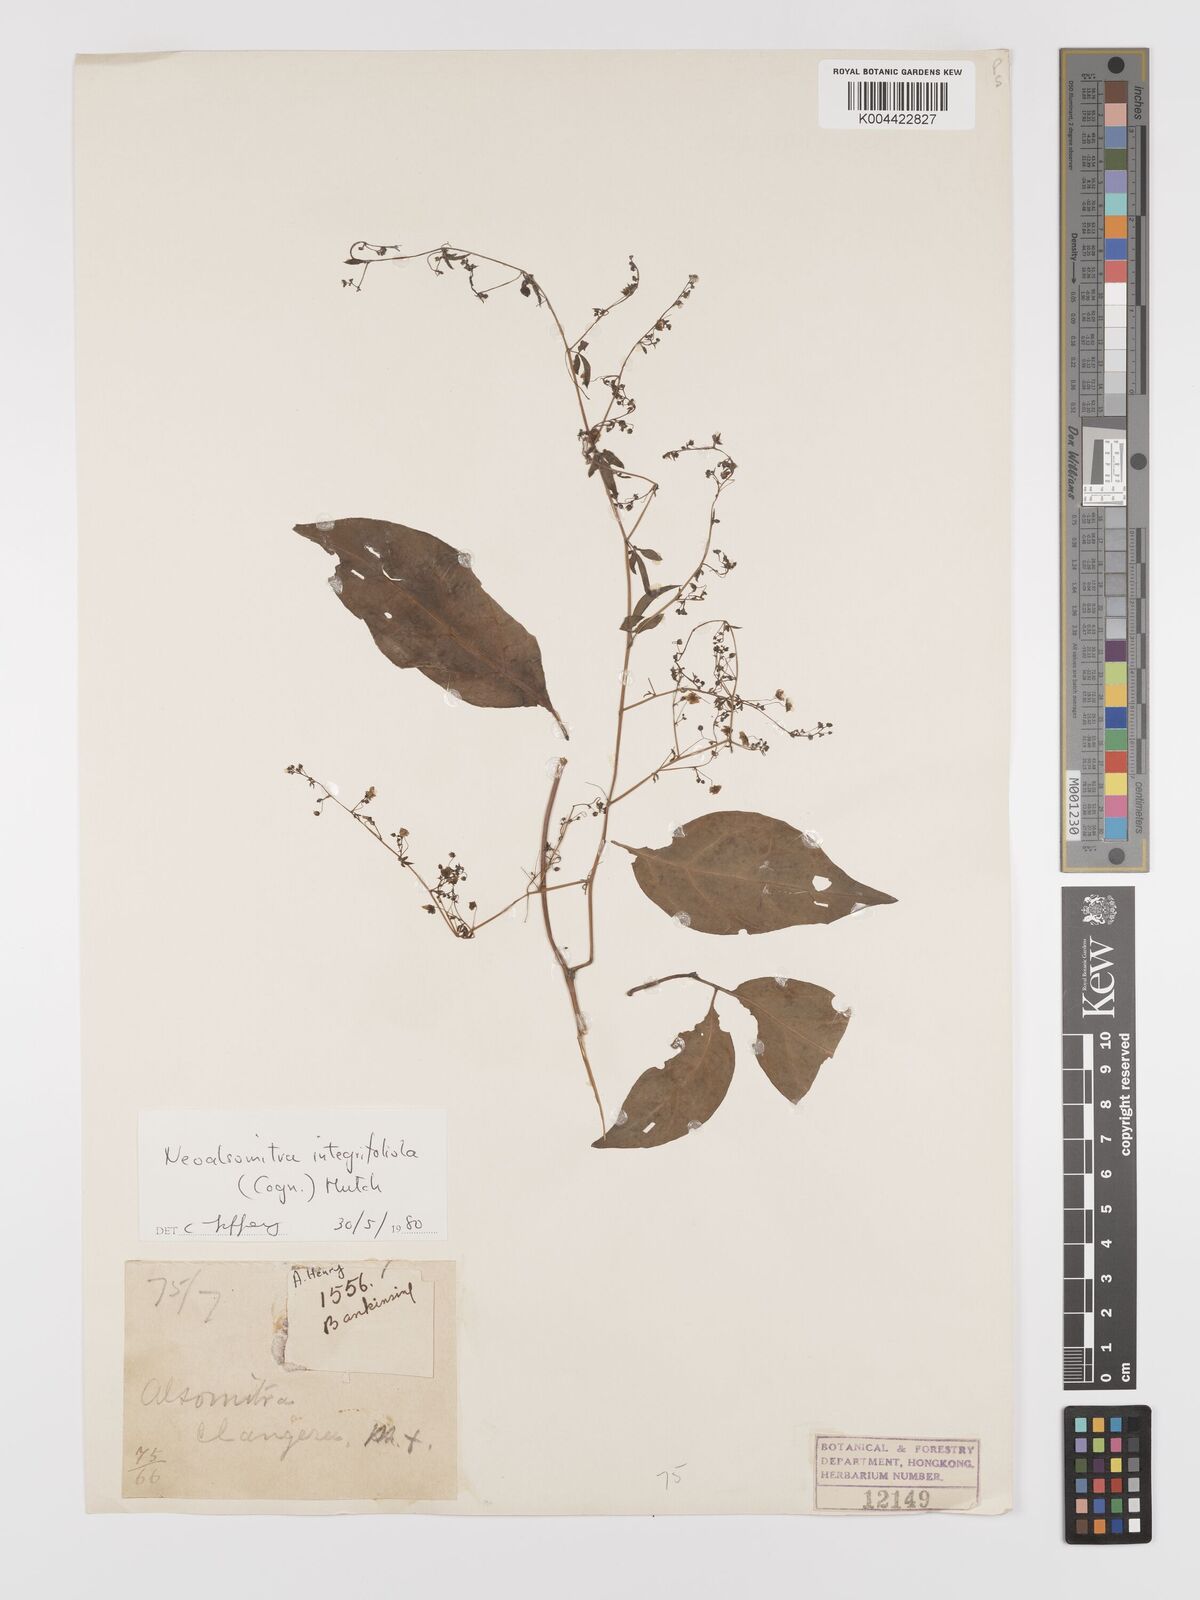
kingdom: Plantae
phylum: Tracheophyta
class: Magnoliopsida
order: Cucurbitales
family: Cucurbitaceae
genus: Neoalsomitra
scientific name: Neoalsomitra clavigera
